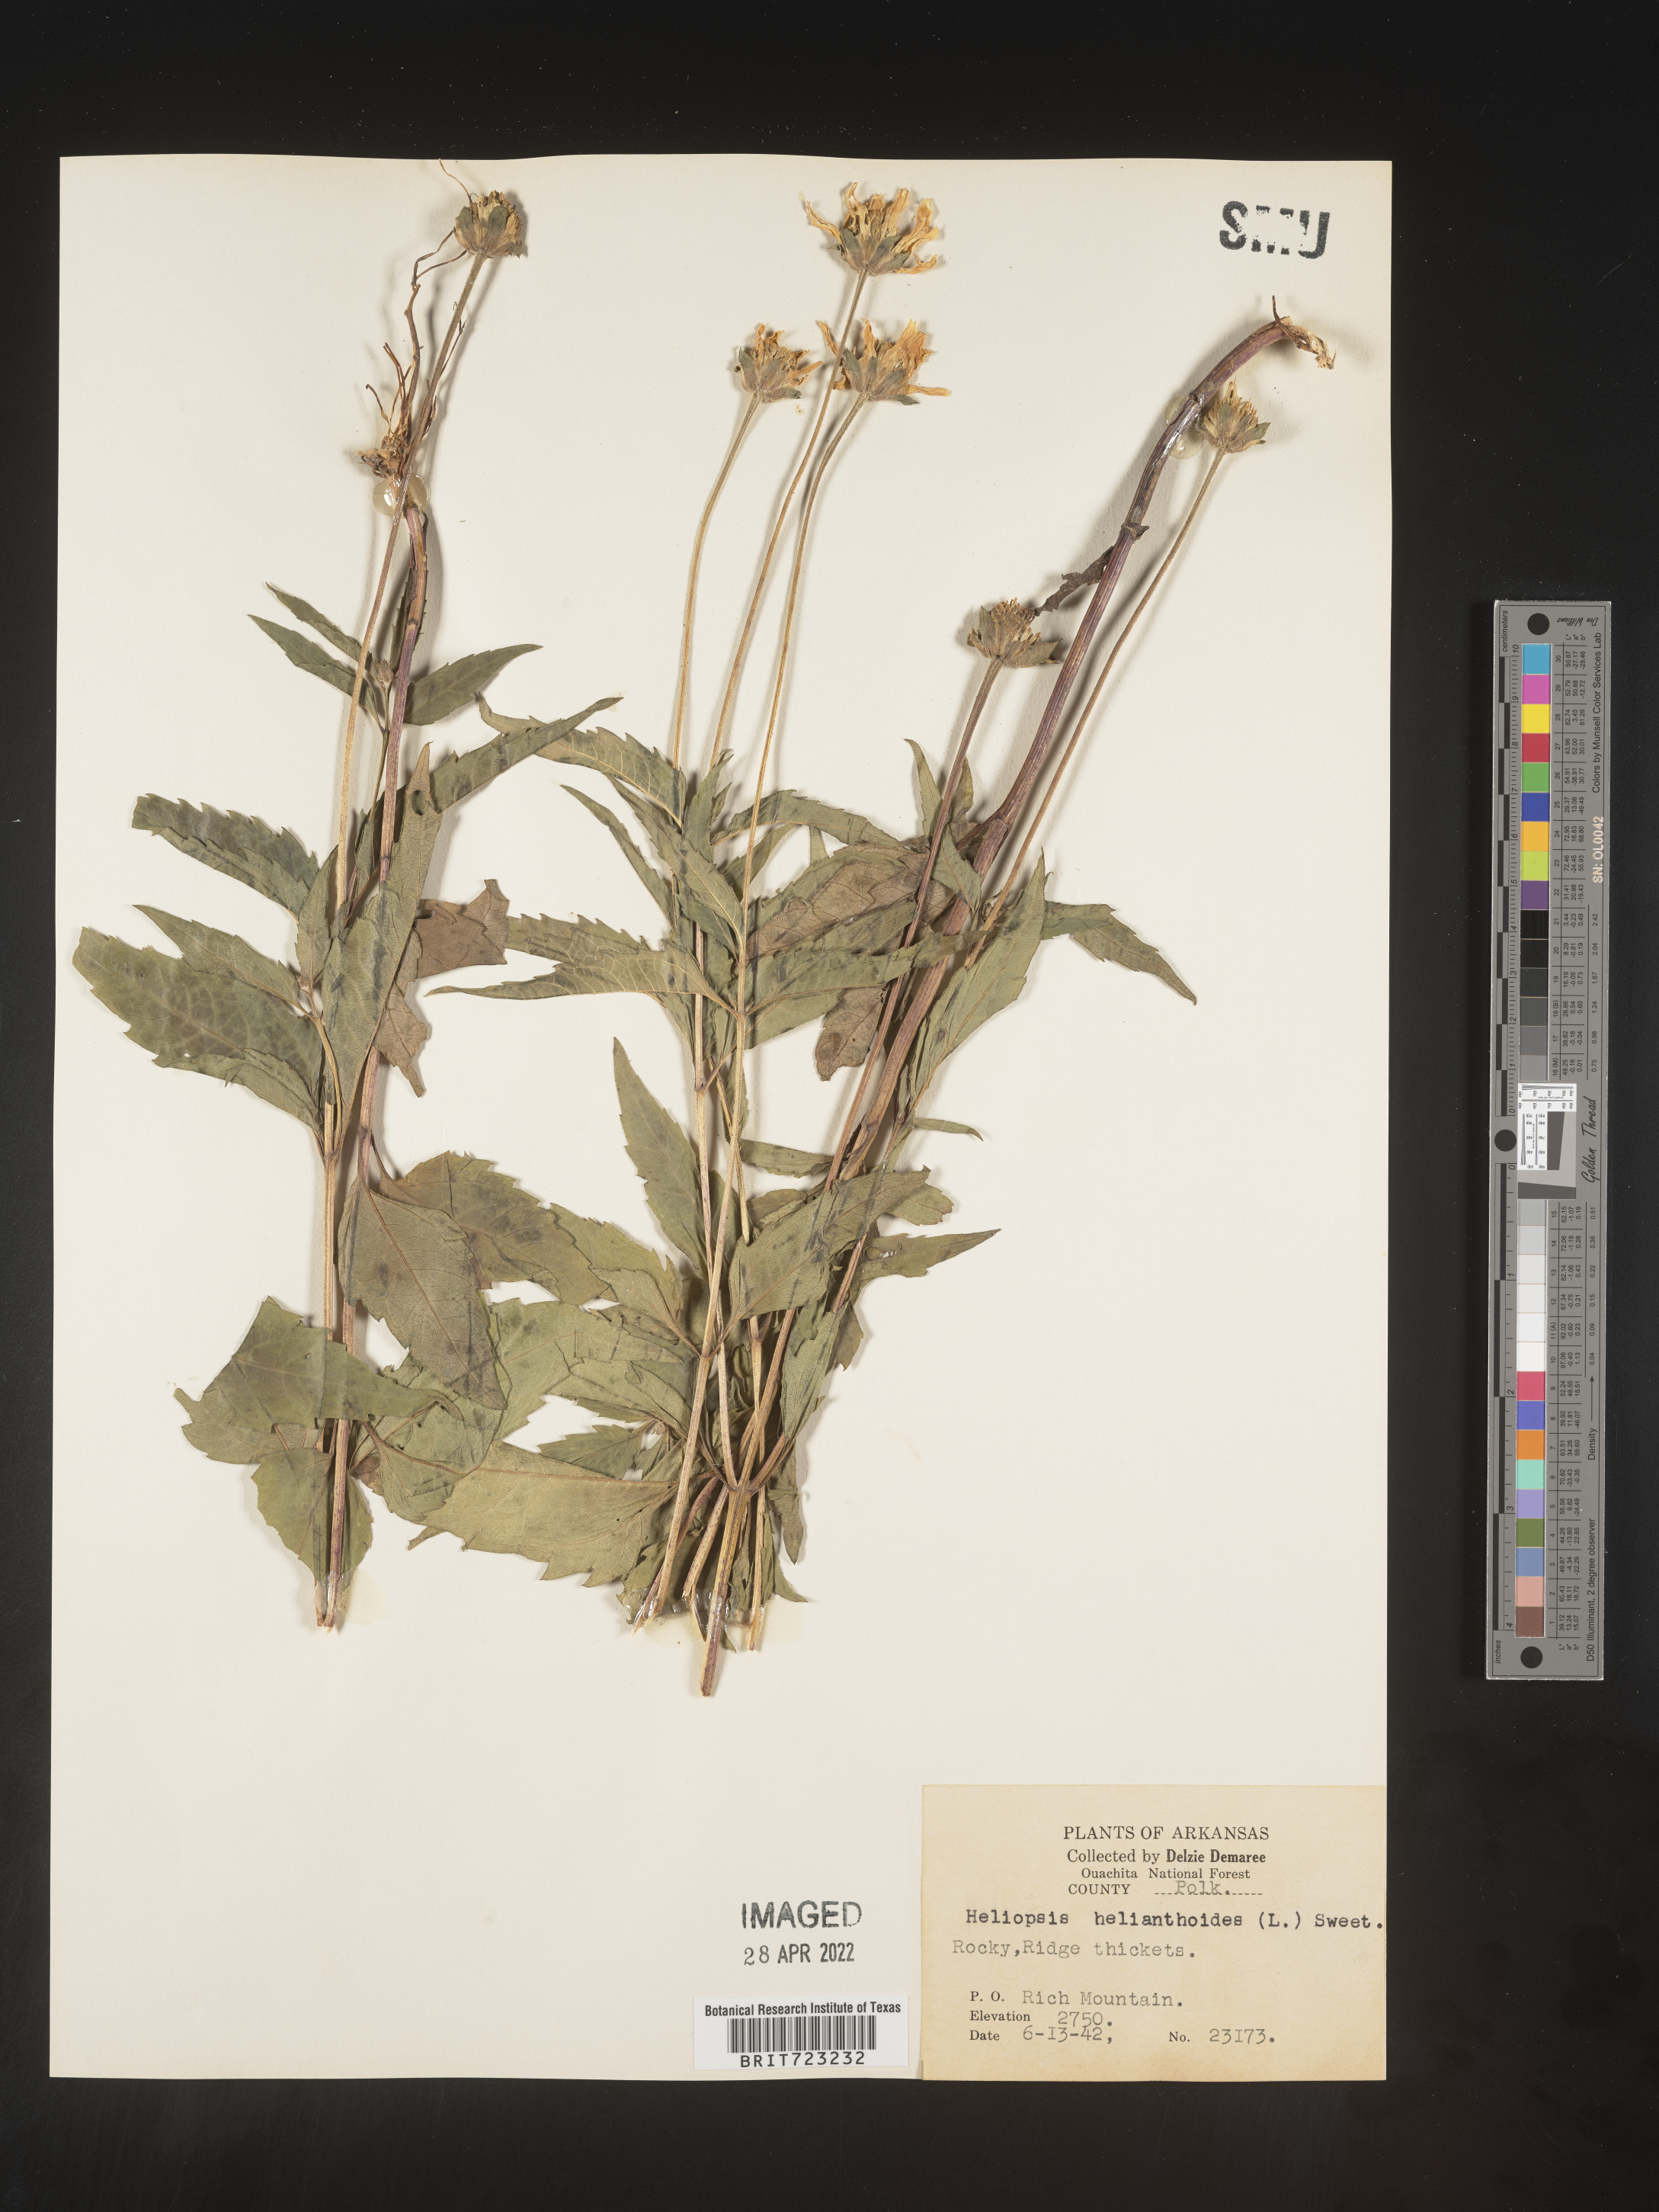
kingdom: Plantae
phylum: Tracheophyta
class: Magnoliopsida
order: Asterales
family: Asteraceae
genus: Heliopsis
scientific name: Heliopsis helianthoides
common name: False sunflower
